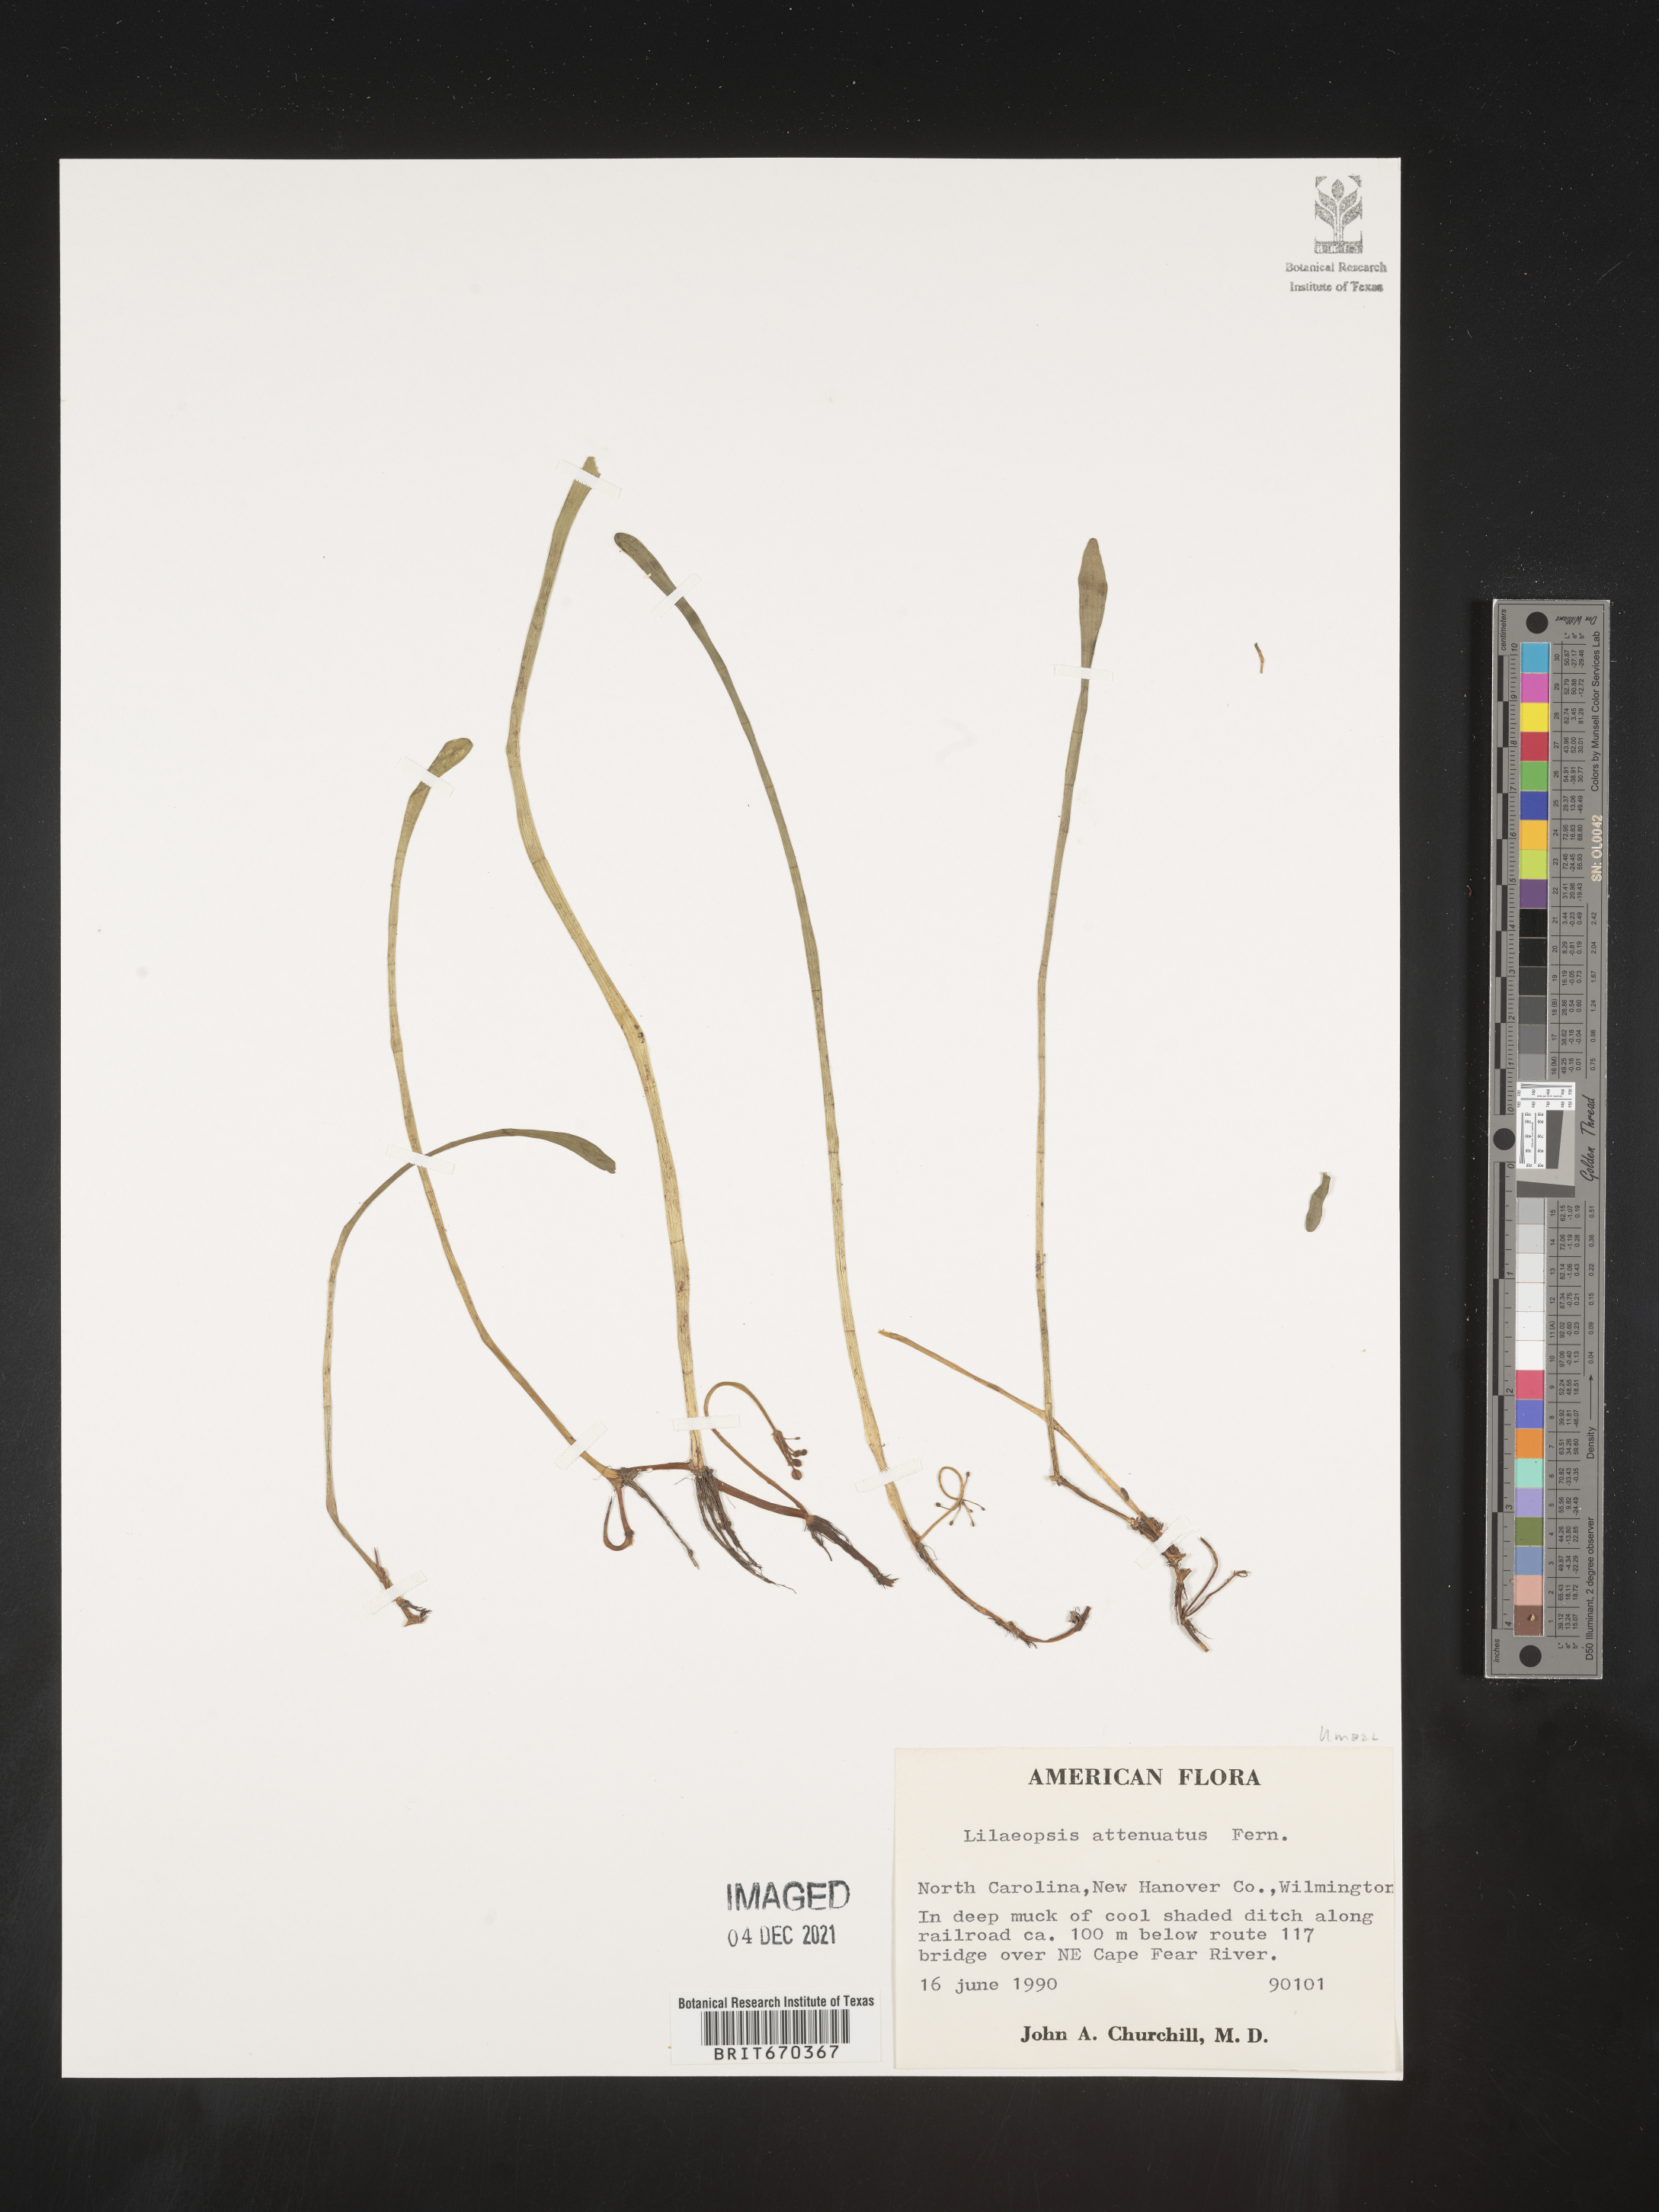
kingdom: Plantae
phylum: Tracheophyta
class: Magnoliopsida
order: Apiales
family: Apiaceae
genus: Lilaeopsis
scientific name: Lilaeopsis
